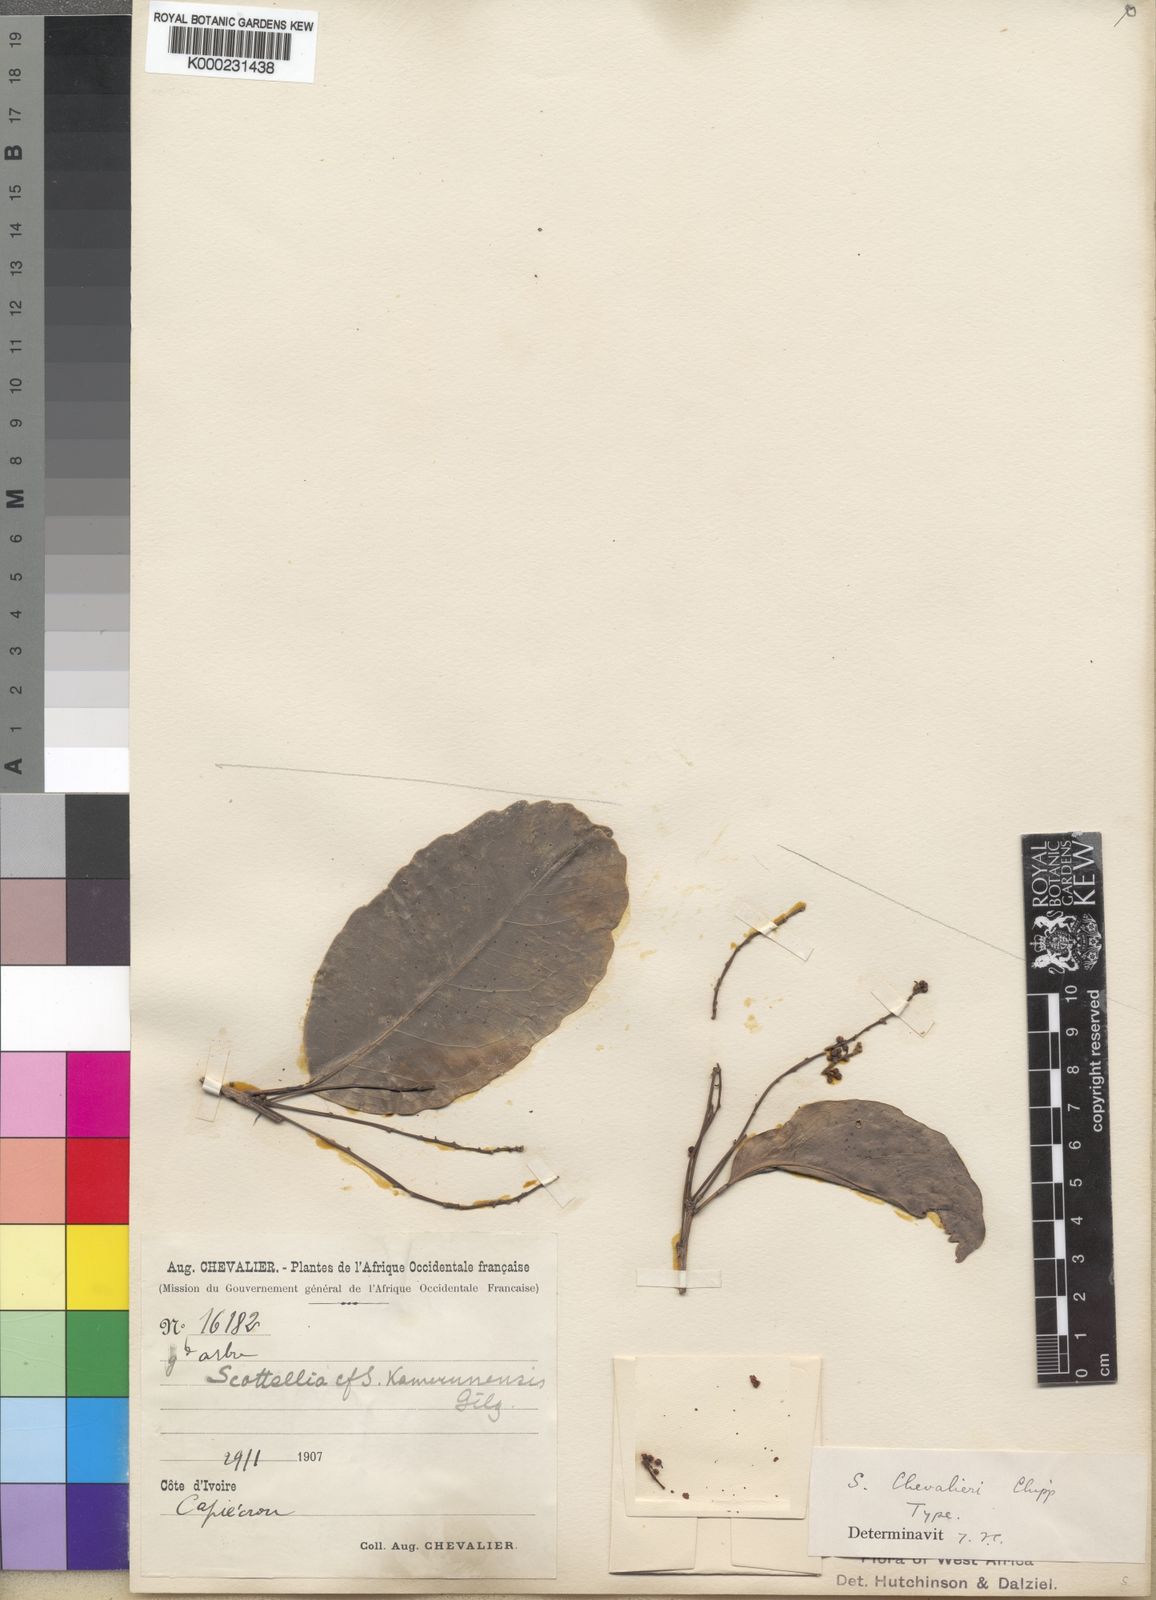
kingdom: Plantae
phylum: Tracheophyta
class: Magnoliopsida
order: Malpighiales
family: Achariaceae
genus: Scottellia
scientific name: Scottellia
